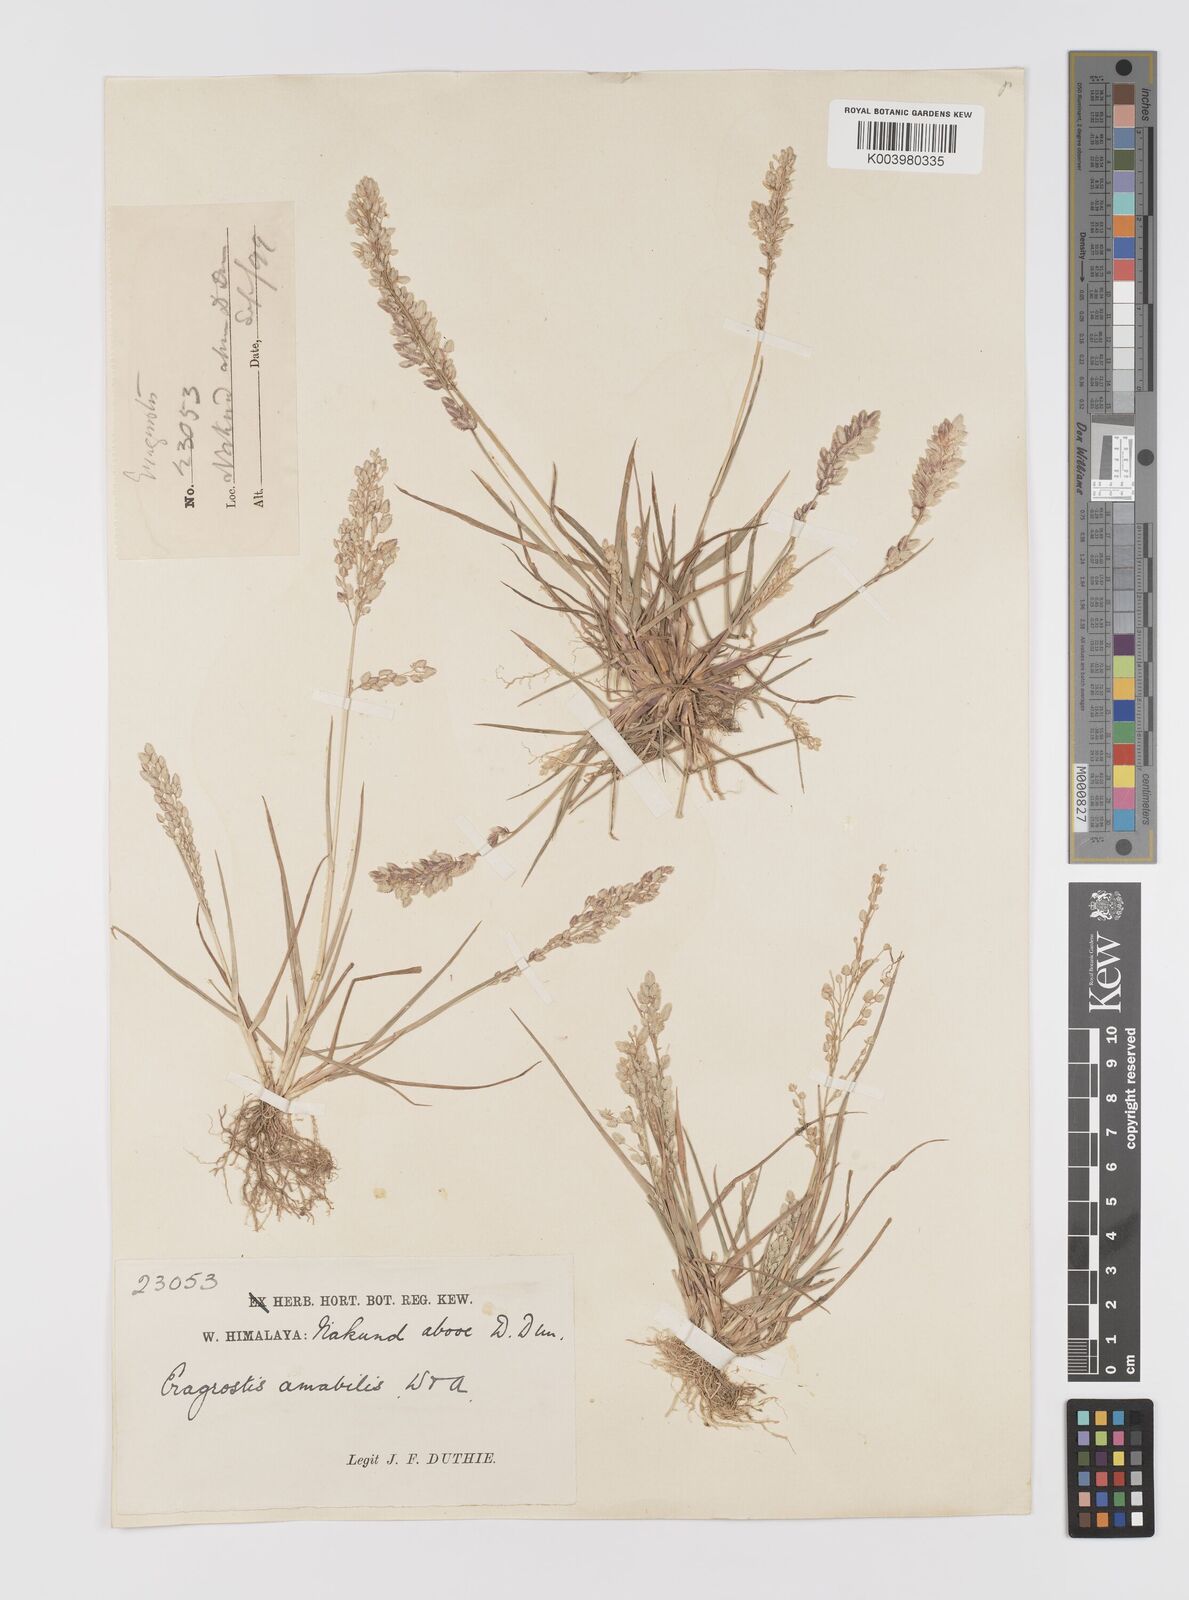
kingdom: Plantae
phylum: Tracheophyta
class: Liliopsida
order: Poales
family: Poaceae
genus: Eragrostis
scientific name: Eragrostis unioloides
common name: Chinese lovegrass
